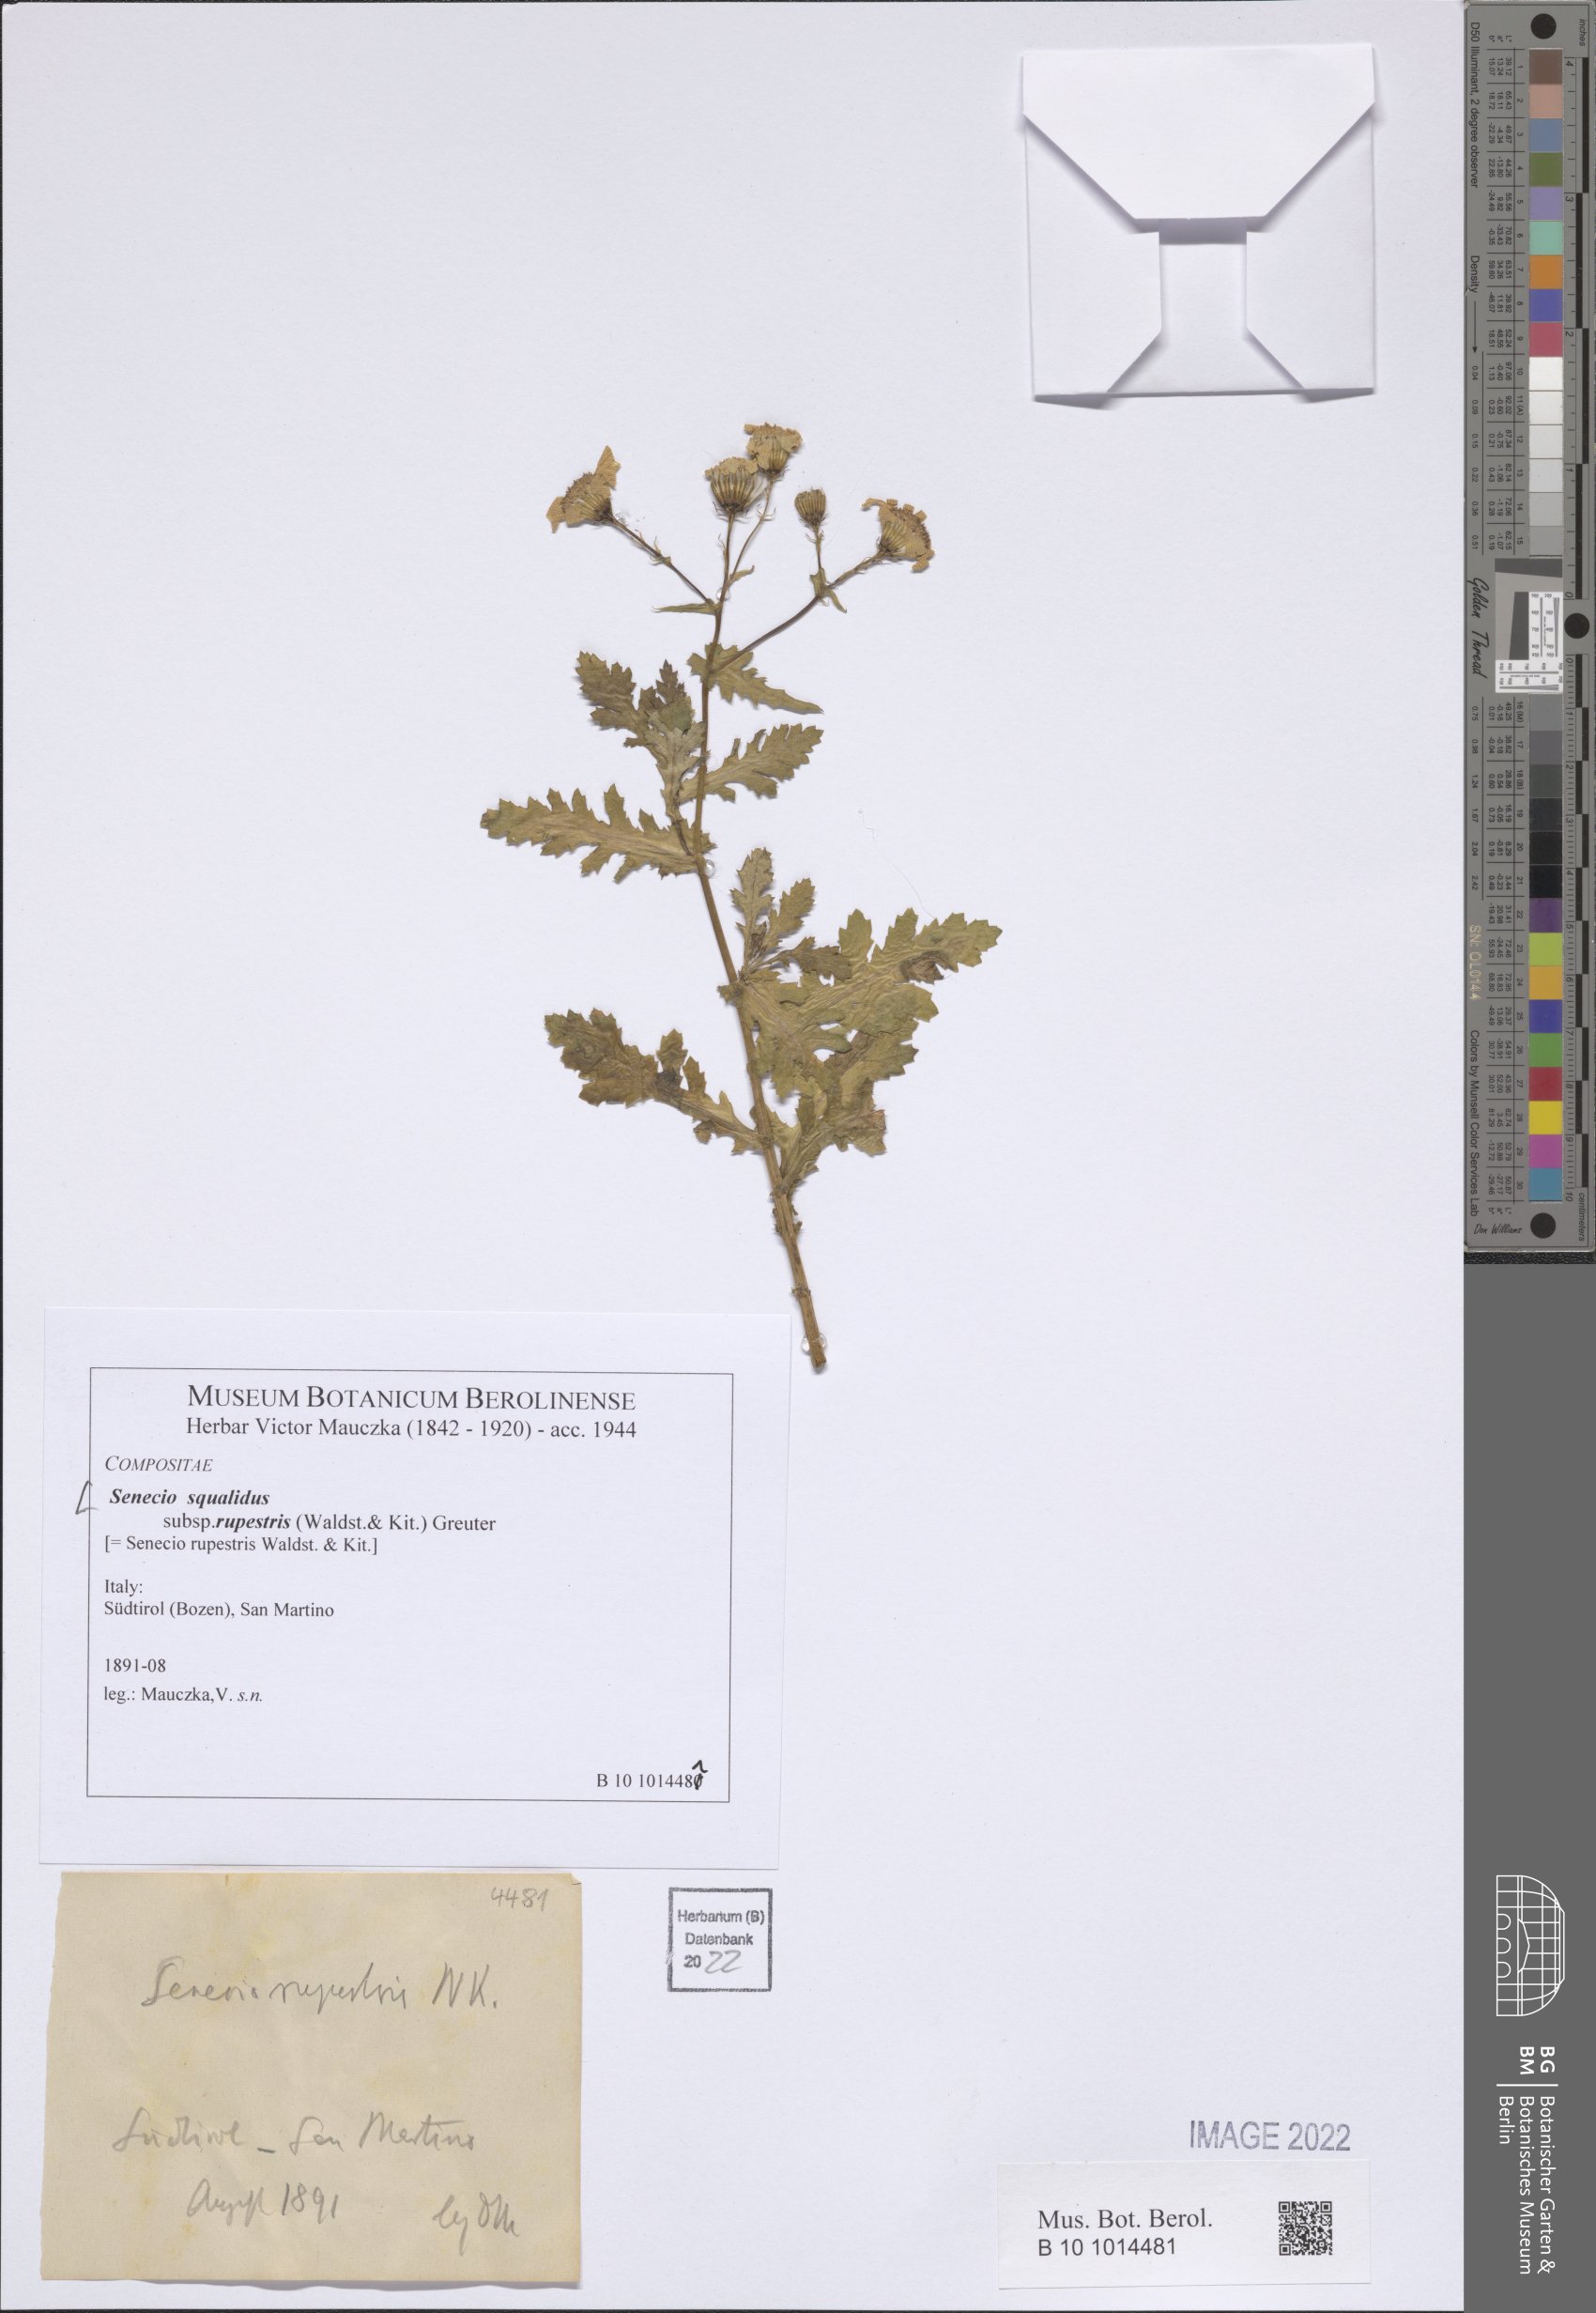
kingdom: Plantae
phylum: Tracheophyta
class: Magnoliopsida
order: Asterales
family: Asteraceae
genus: Senecio
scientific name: Senecio rupestris
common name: Rock ragwort
